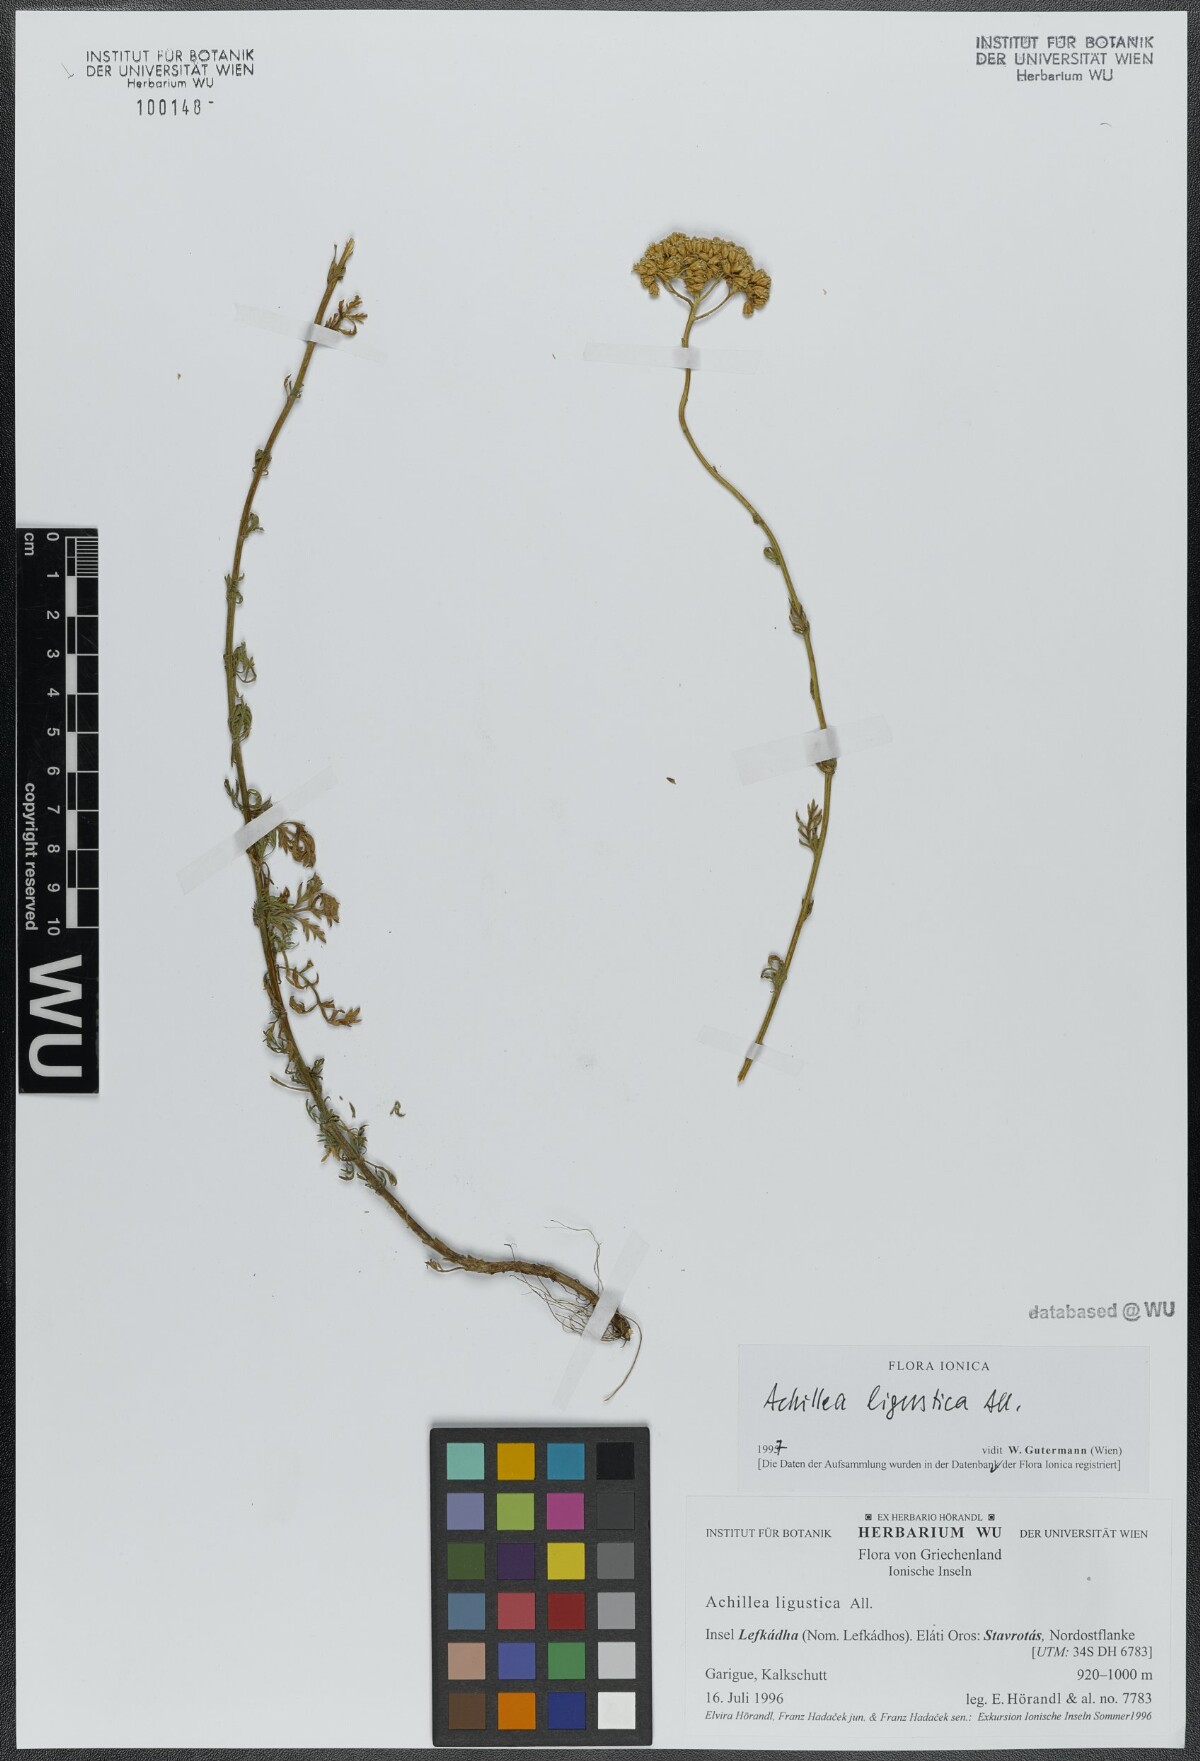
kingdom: Plantae
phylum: Tracheophyta
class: Magnoliopsida
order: Asterales
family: Asteraceae
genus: Achillea
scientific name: Achillea ligustica
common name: Southern yarrow
